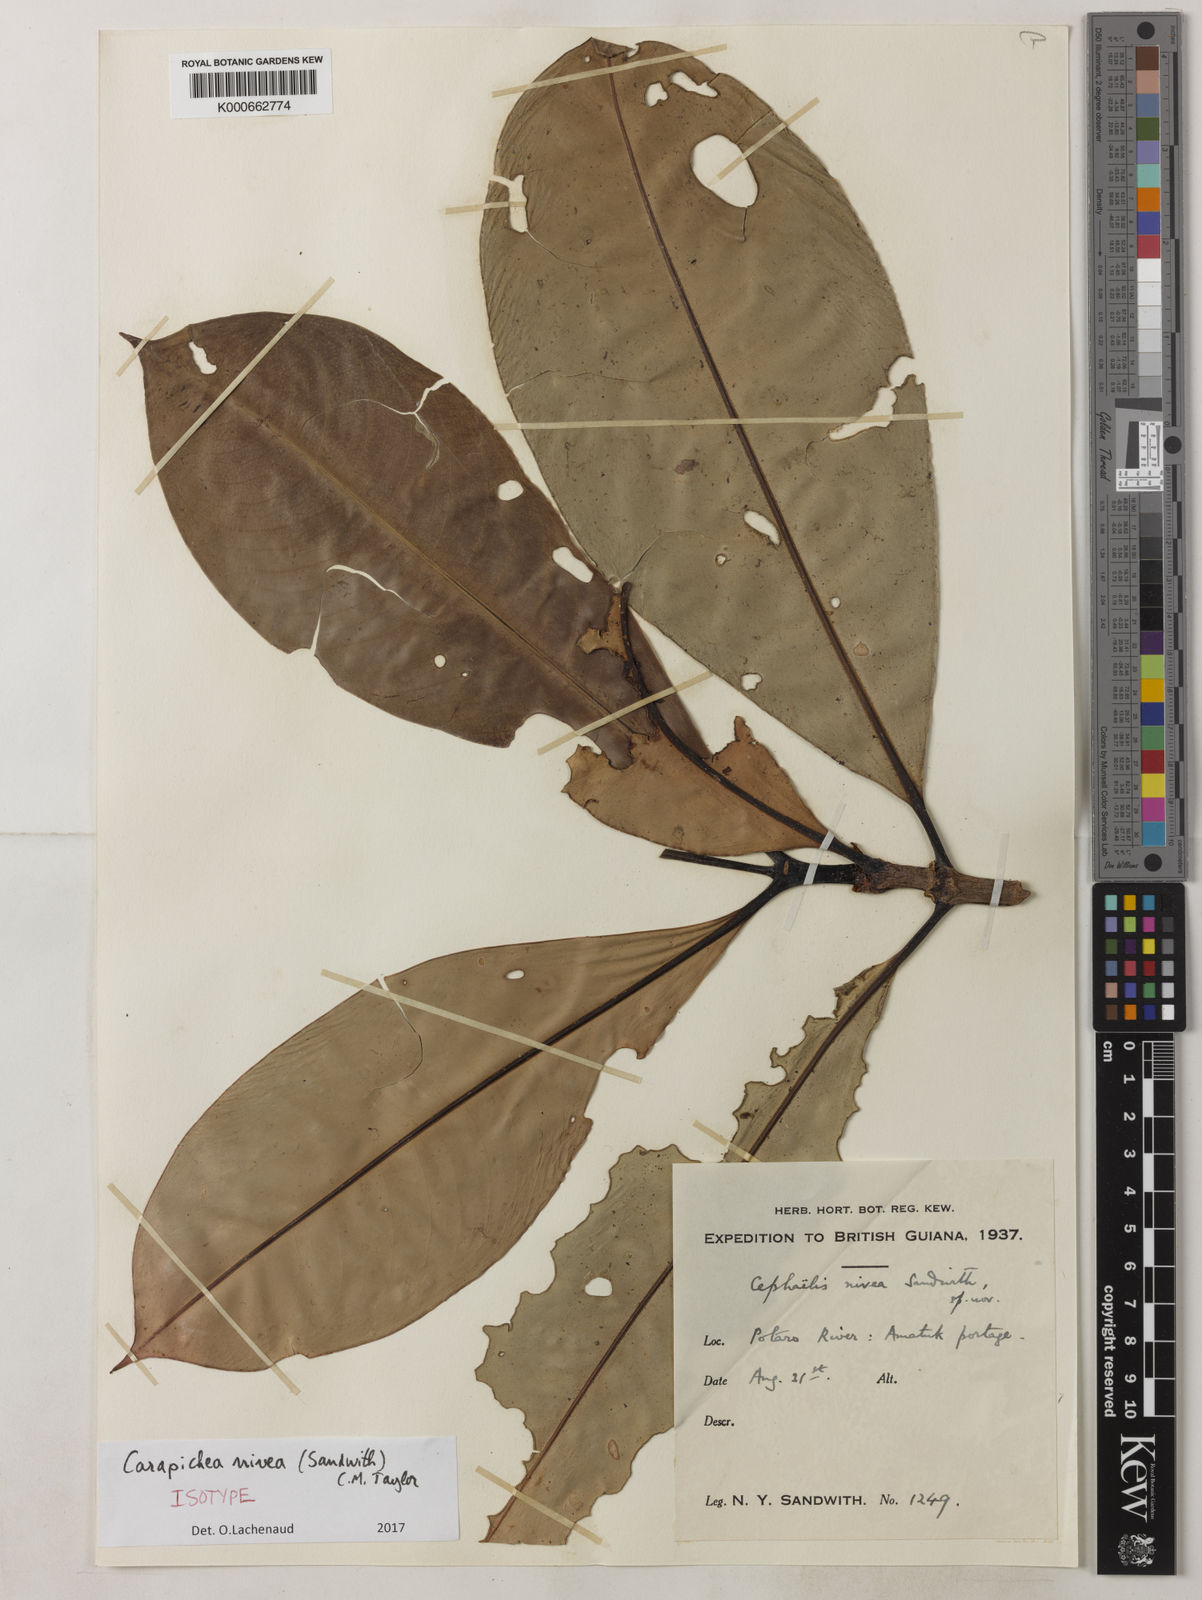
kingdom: Plantae
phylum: Tracheophyta
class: Magnoliopsida
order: Gentianales
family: Rubiaceae
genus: Carapichea
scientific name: Carapichea nivea
